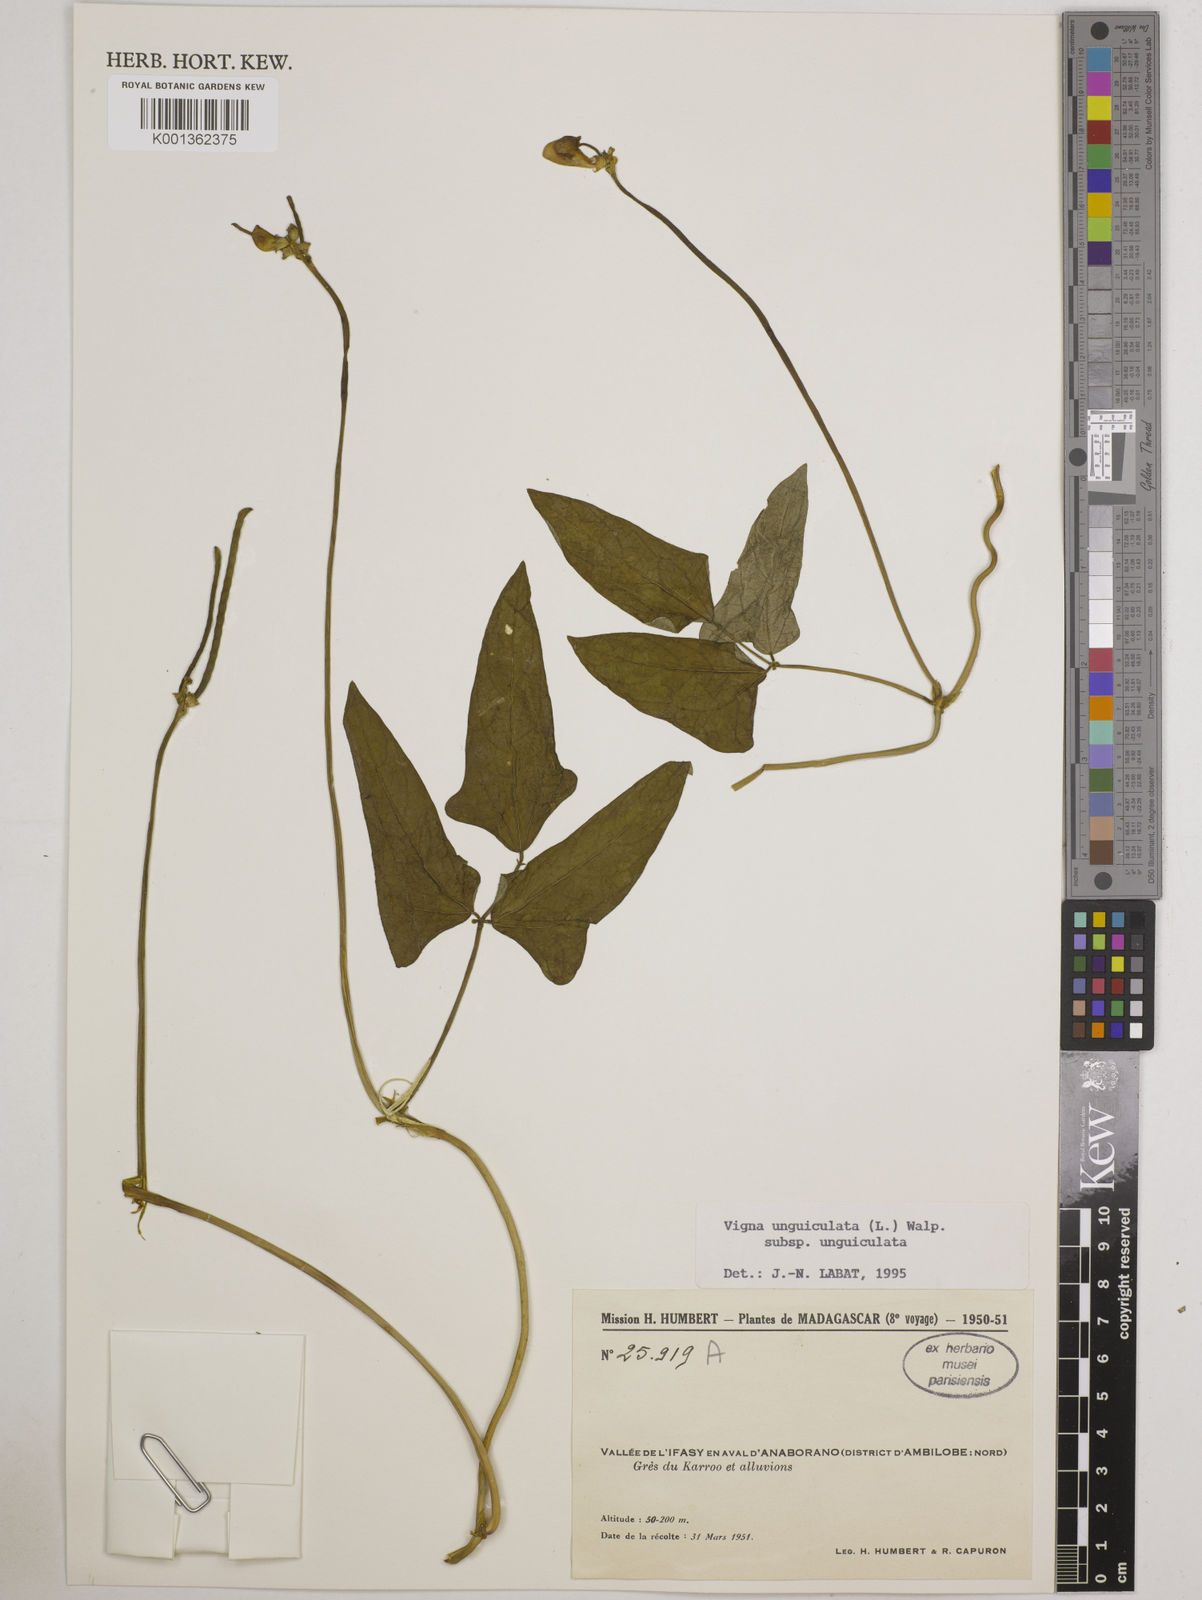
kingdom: Plantae
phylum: Tracheophyta
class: Magnoliopsida
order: Fabales
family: Fabaceae
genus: Vigna
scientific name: Vigna
